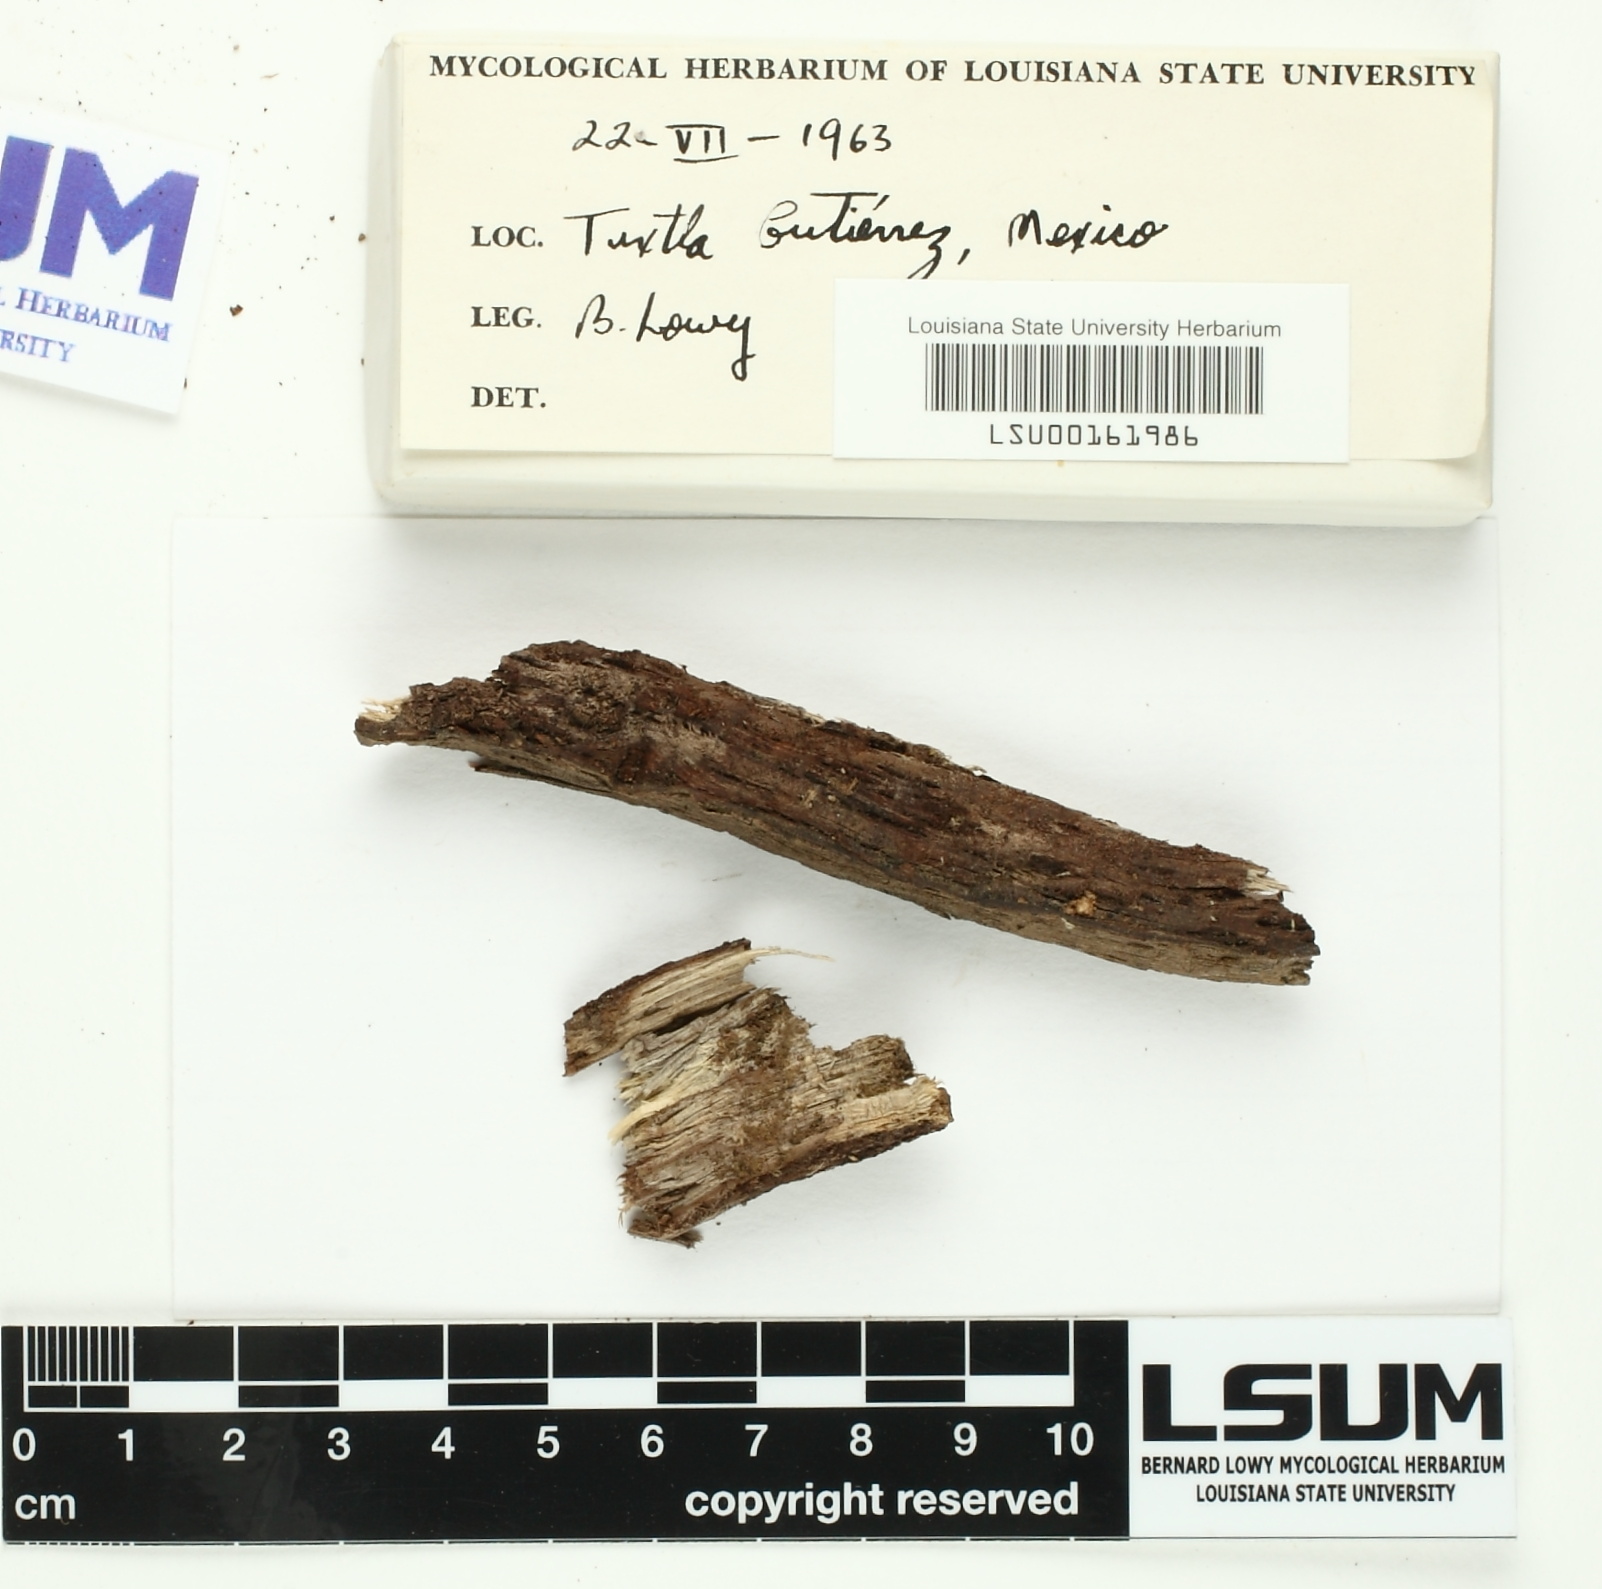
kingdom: Fungi
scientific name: Fungi
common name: Fungi
